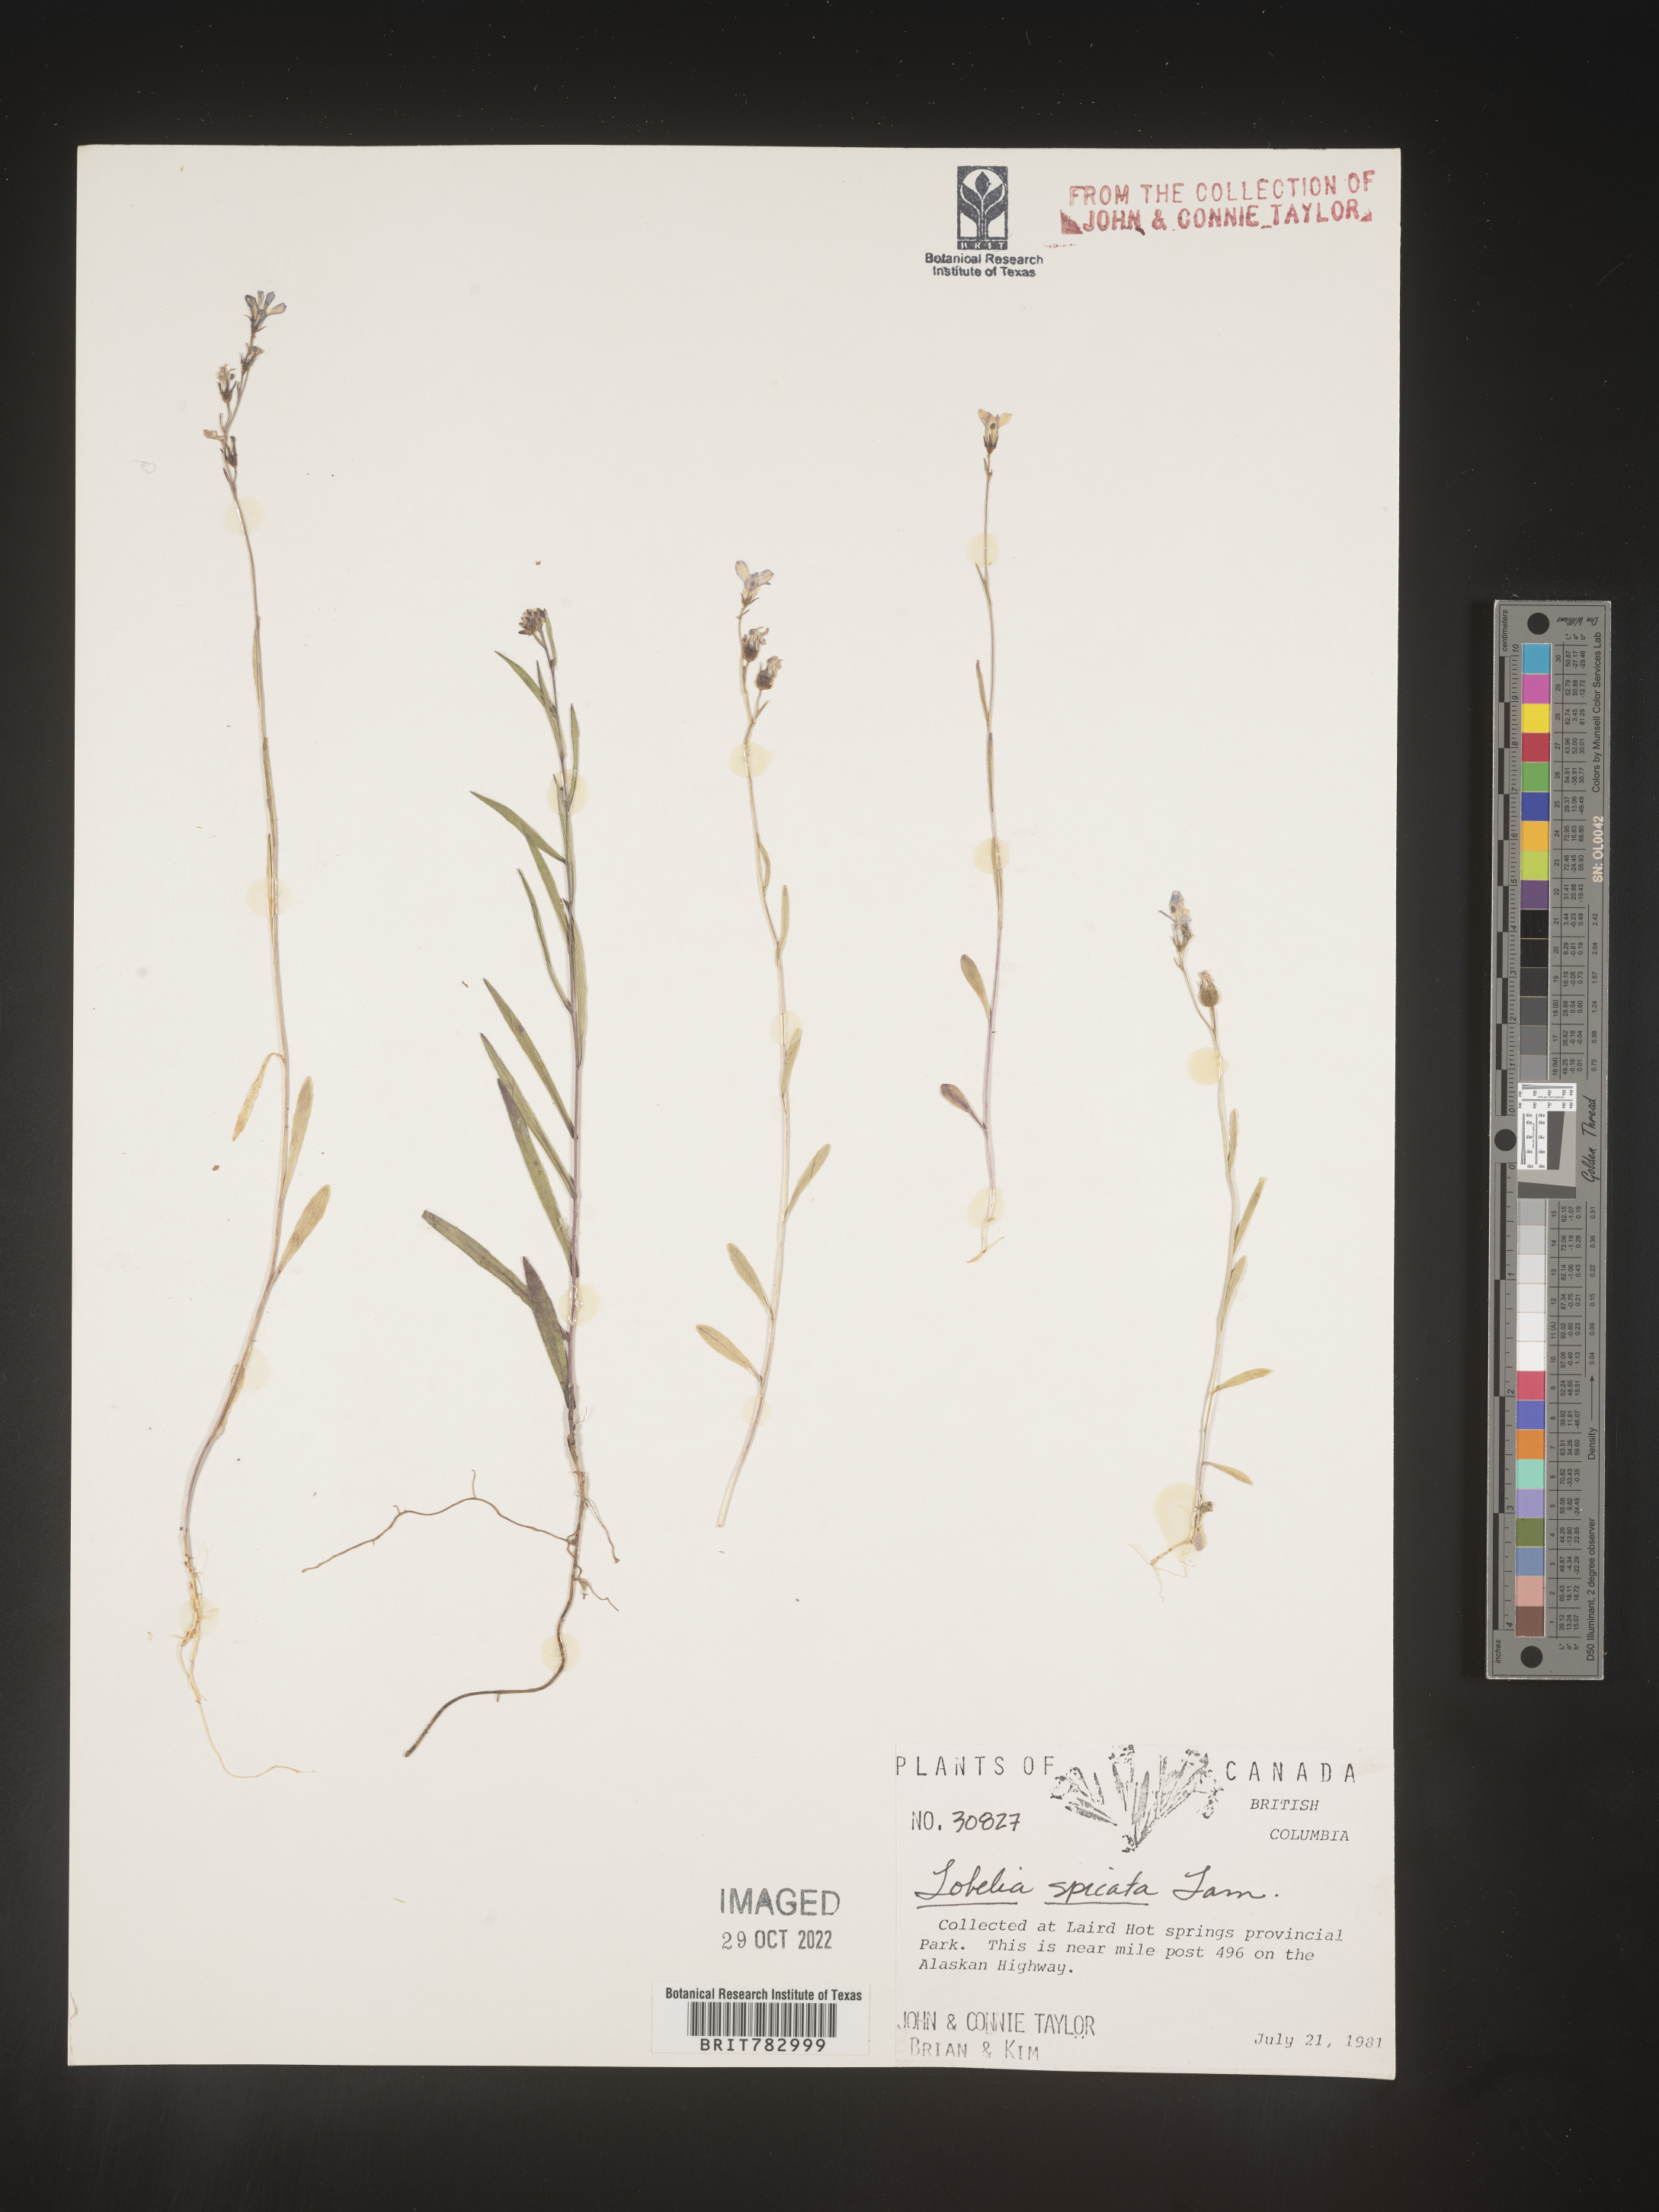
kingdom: Plantae
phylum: Tracheophyta
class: Magnoliopsida
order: Asterales
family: Campanulaceae
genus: Lobelia
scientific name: Lobelia spicata
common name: Pale-spike lobelia
